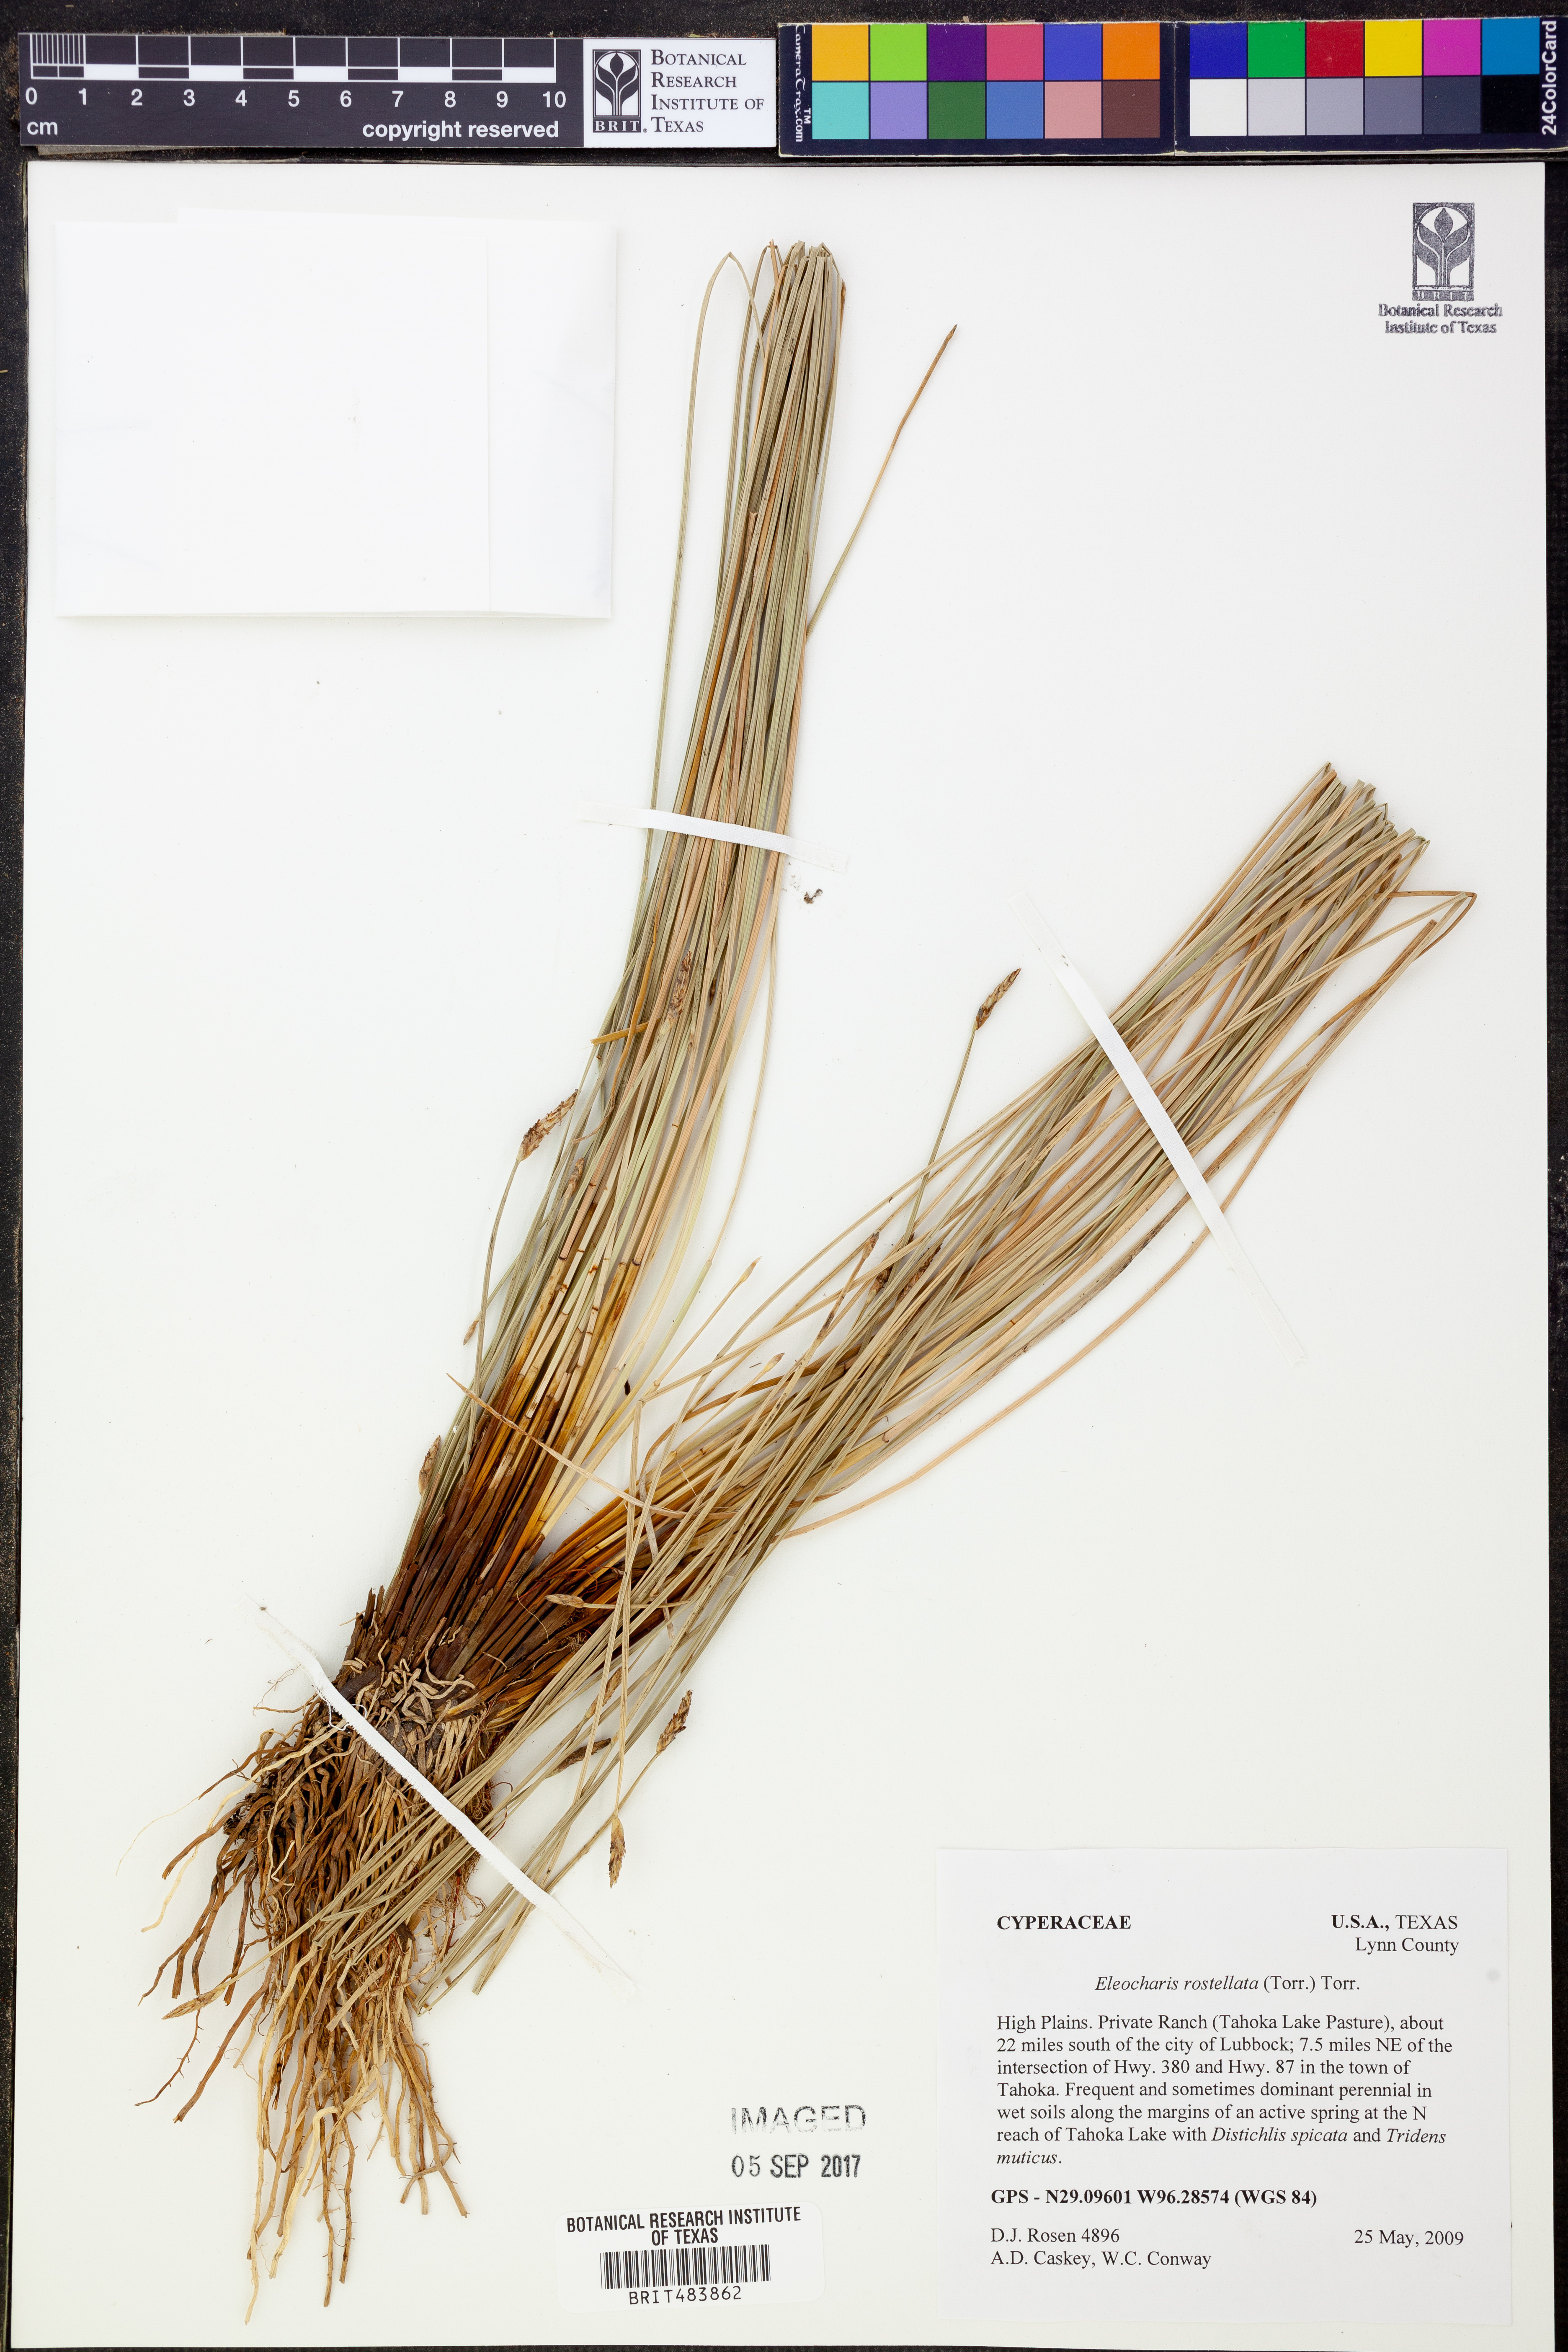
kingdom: Plantae
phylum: Tracheophyta
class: Liliopsida
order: Poales
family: Cyperaceae
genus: Eleocharis
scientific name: Eleocharis rostellata
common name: Walking sedge
